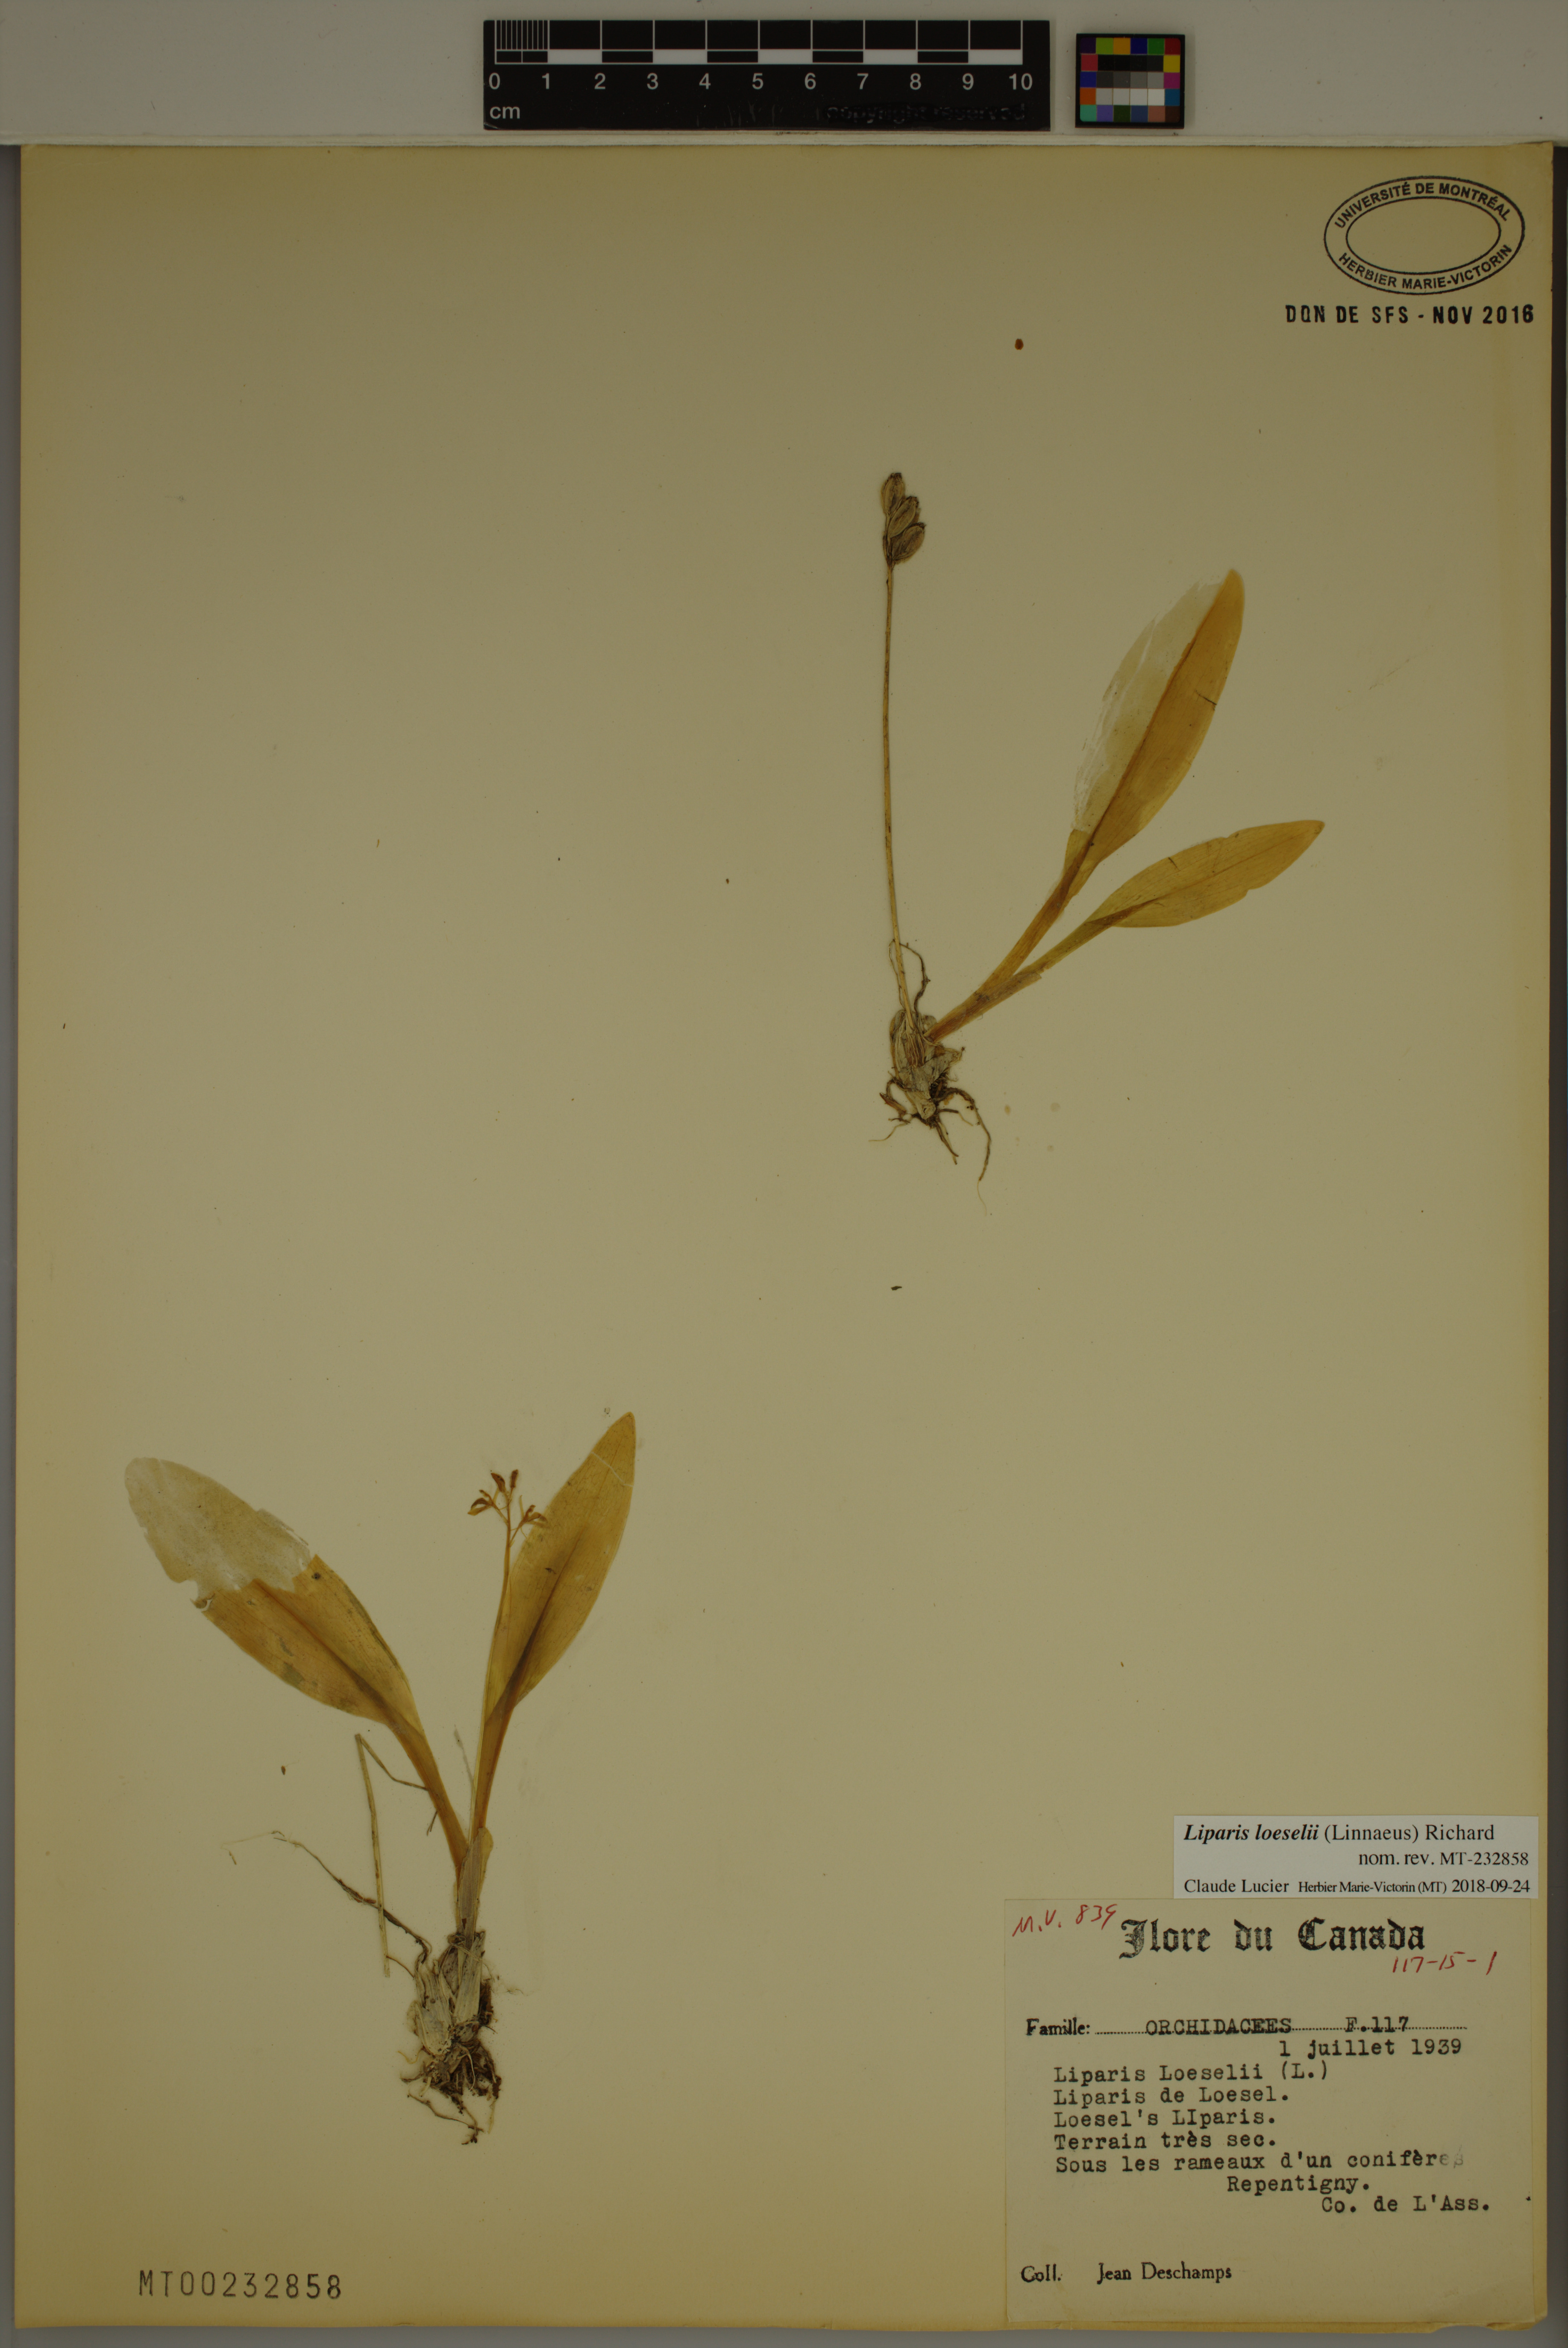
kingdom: Animalia
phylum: Arthropoda
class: Insecta
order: Coleoptera
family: Curculionidae
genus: Liparis
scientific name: Liparis loeselii
